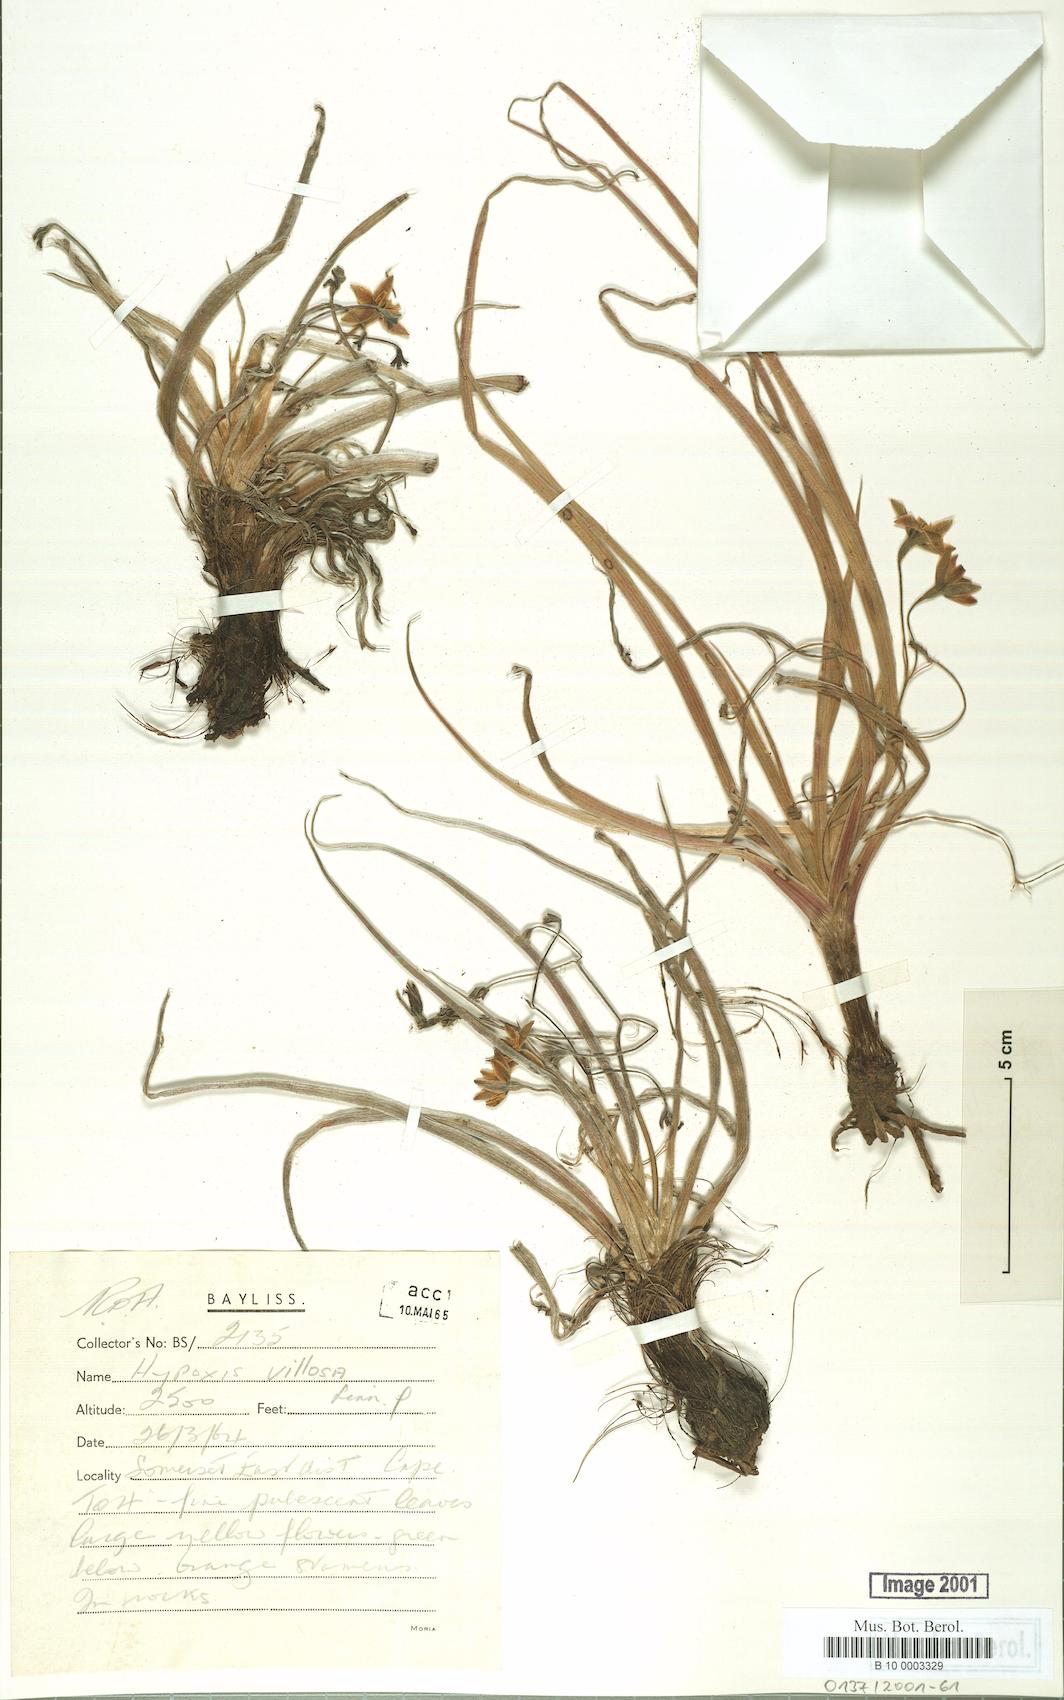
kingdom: Plantae
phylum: Tracheophyta
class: Liliopsida
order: Asparagales
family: Hypoxidaceae
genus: Hypoxis
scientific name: Hypoxis villosa
